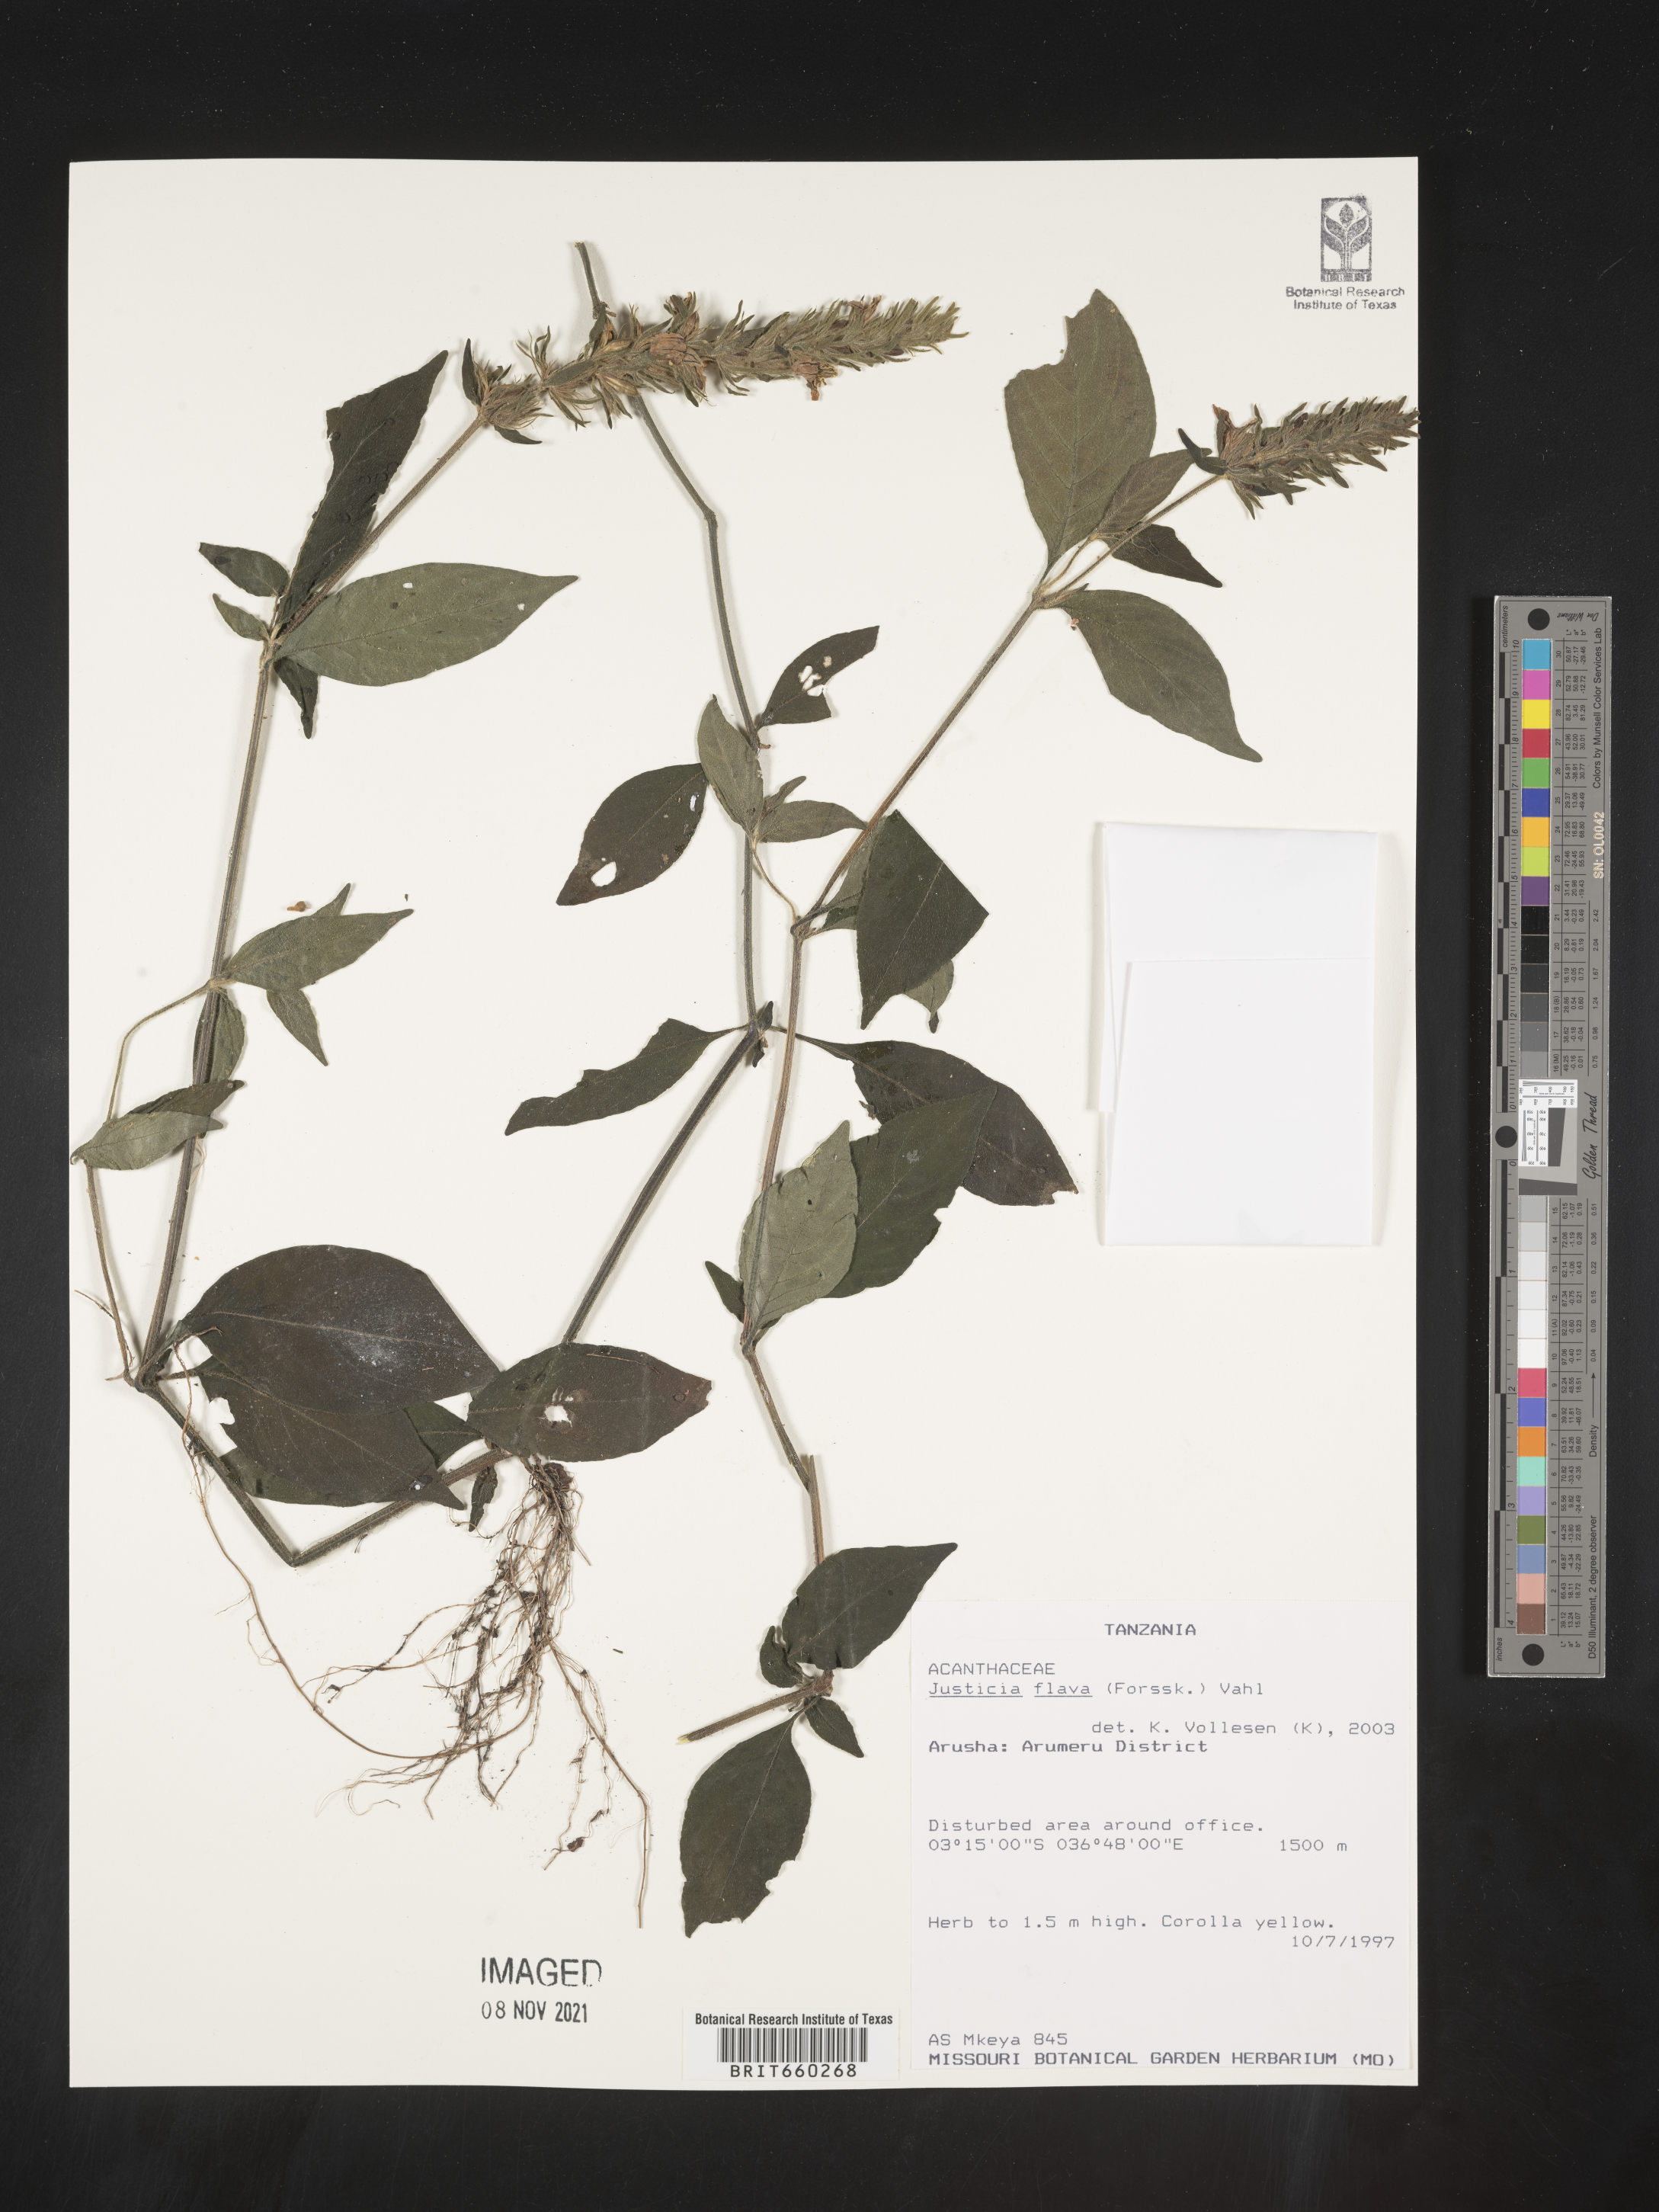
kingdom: Plantae
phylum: Tracheophyta
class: Magnoliopsida
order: Lamiales
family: Acanthaceae
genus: Justicia
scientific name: Justicia flava
